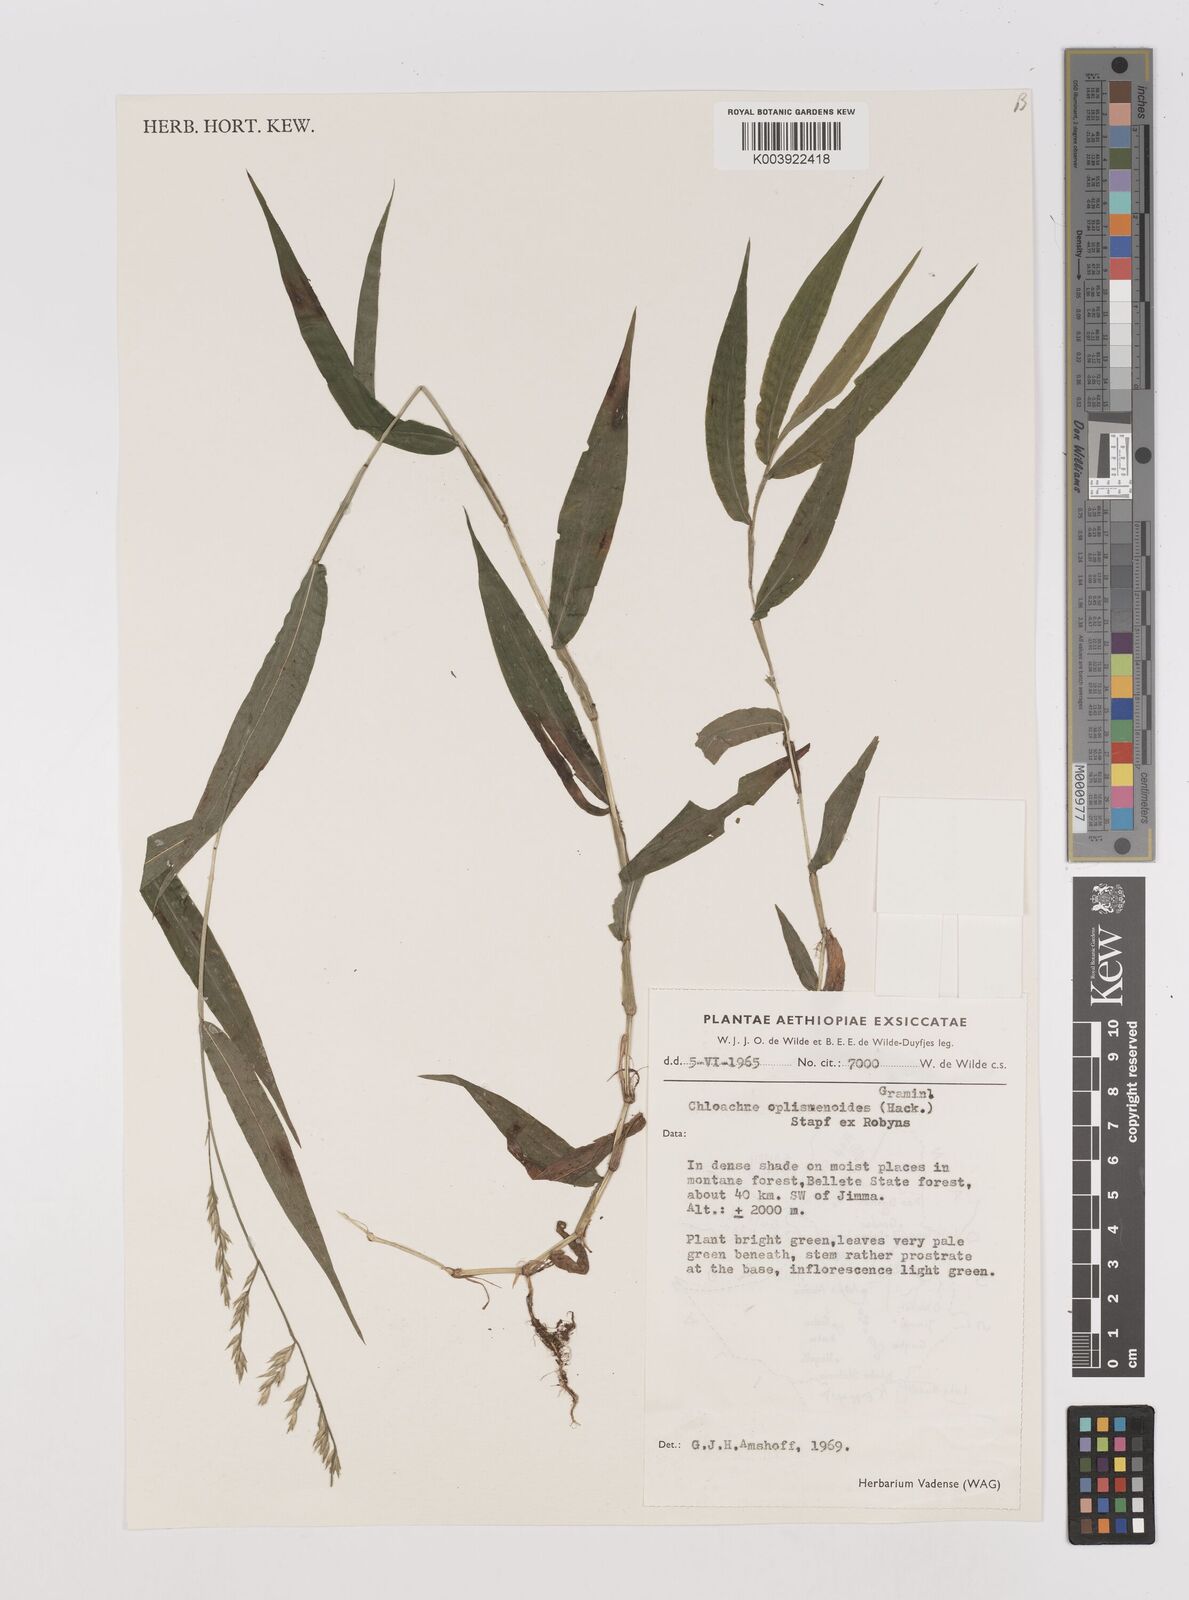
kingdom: Plantae
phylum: Tracheophyta
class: Liliopsida
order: Poales
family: Poaceae
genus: Poecilostachys
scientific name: Poecilostachys oplismenoides
